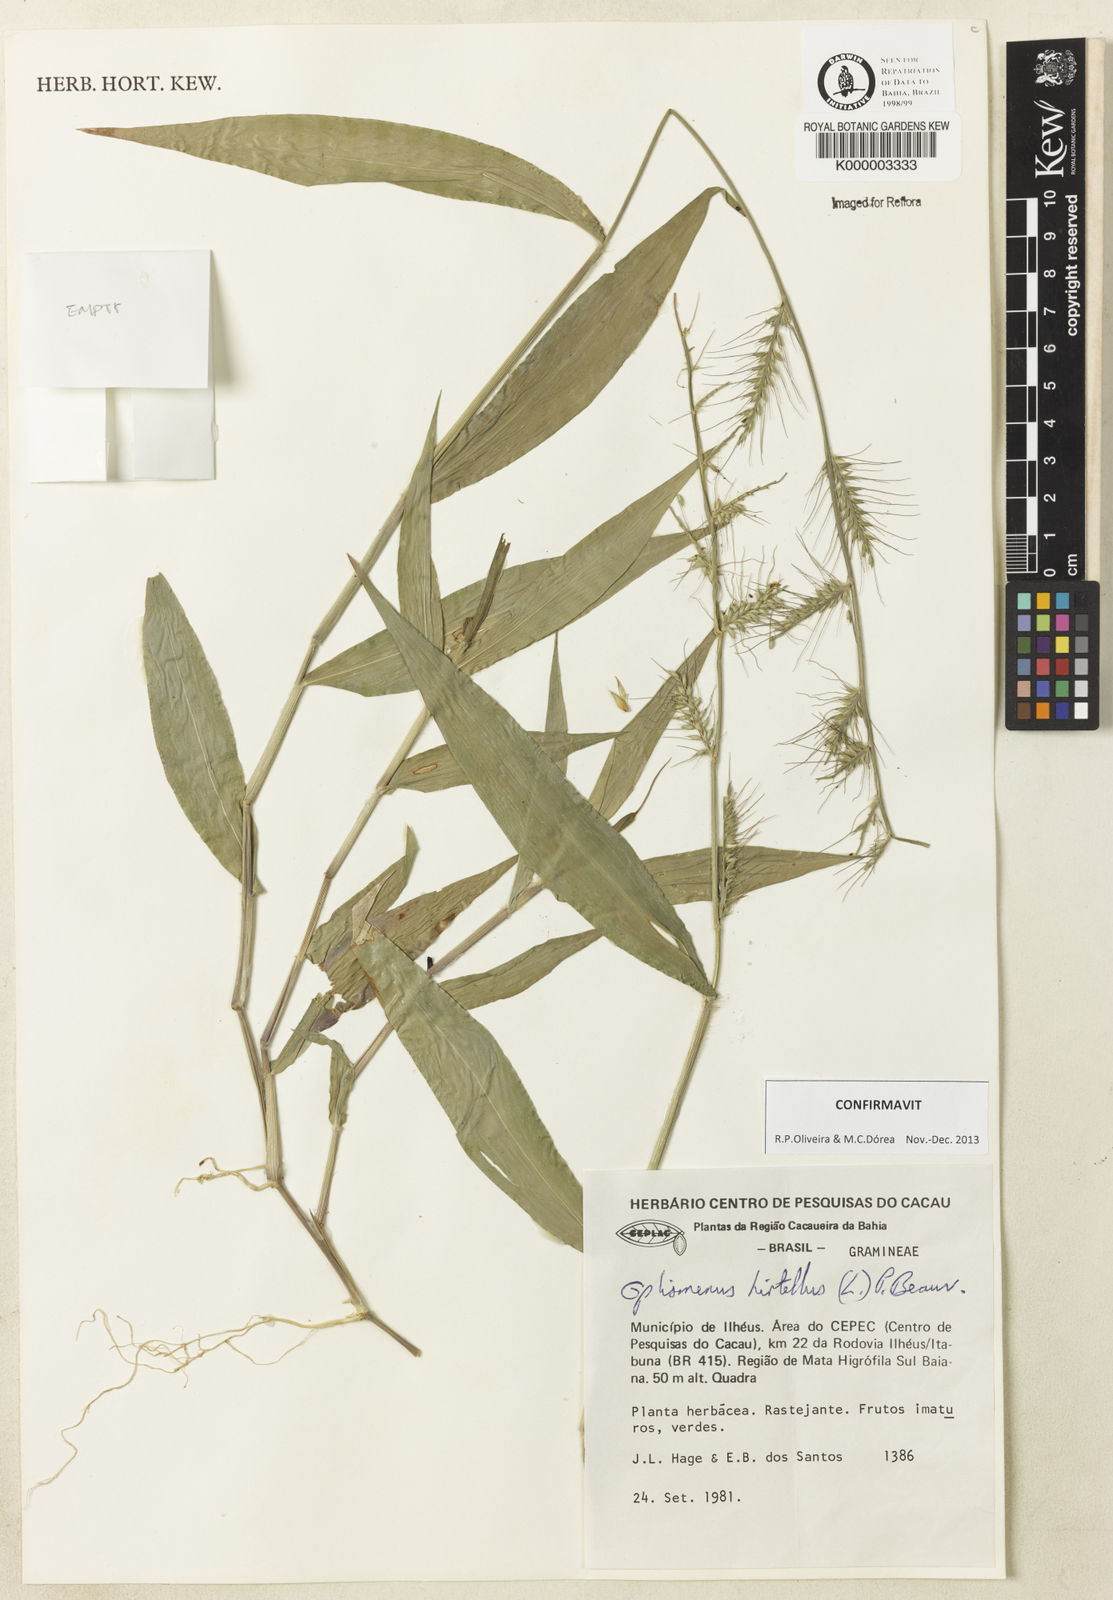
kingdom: Plantae
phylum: Tracheophyta
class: Liliopsida
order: Poales
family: Poaceae
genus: Oplismenus
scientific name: Oplismenus hirtellus
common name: Basketgrass
